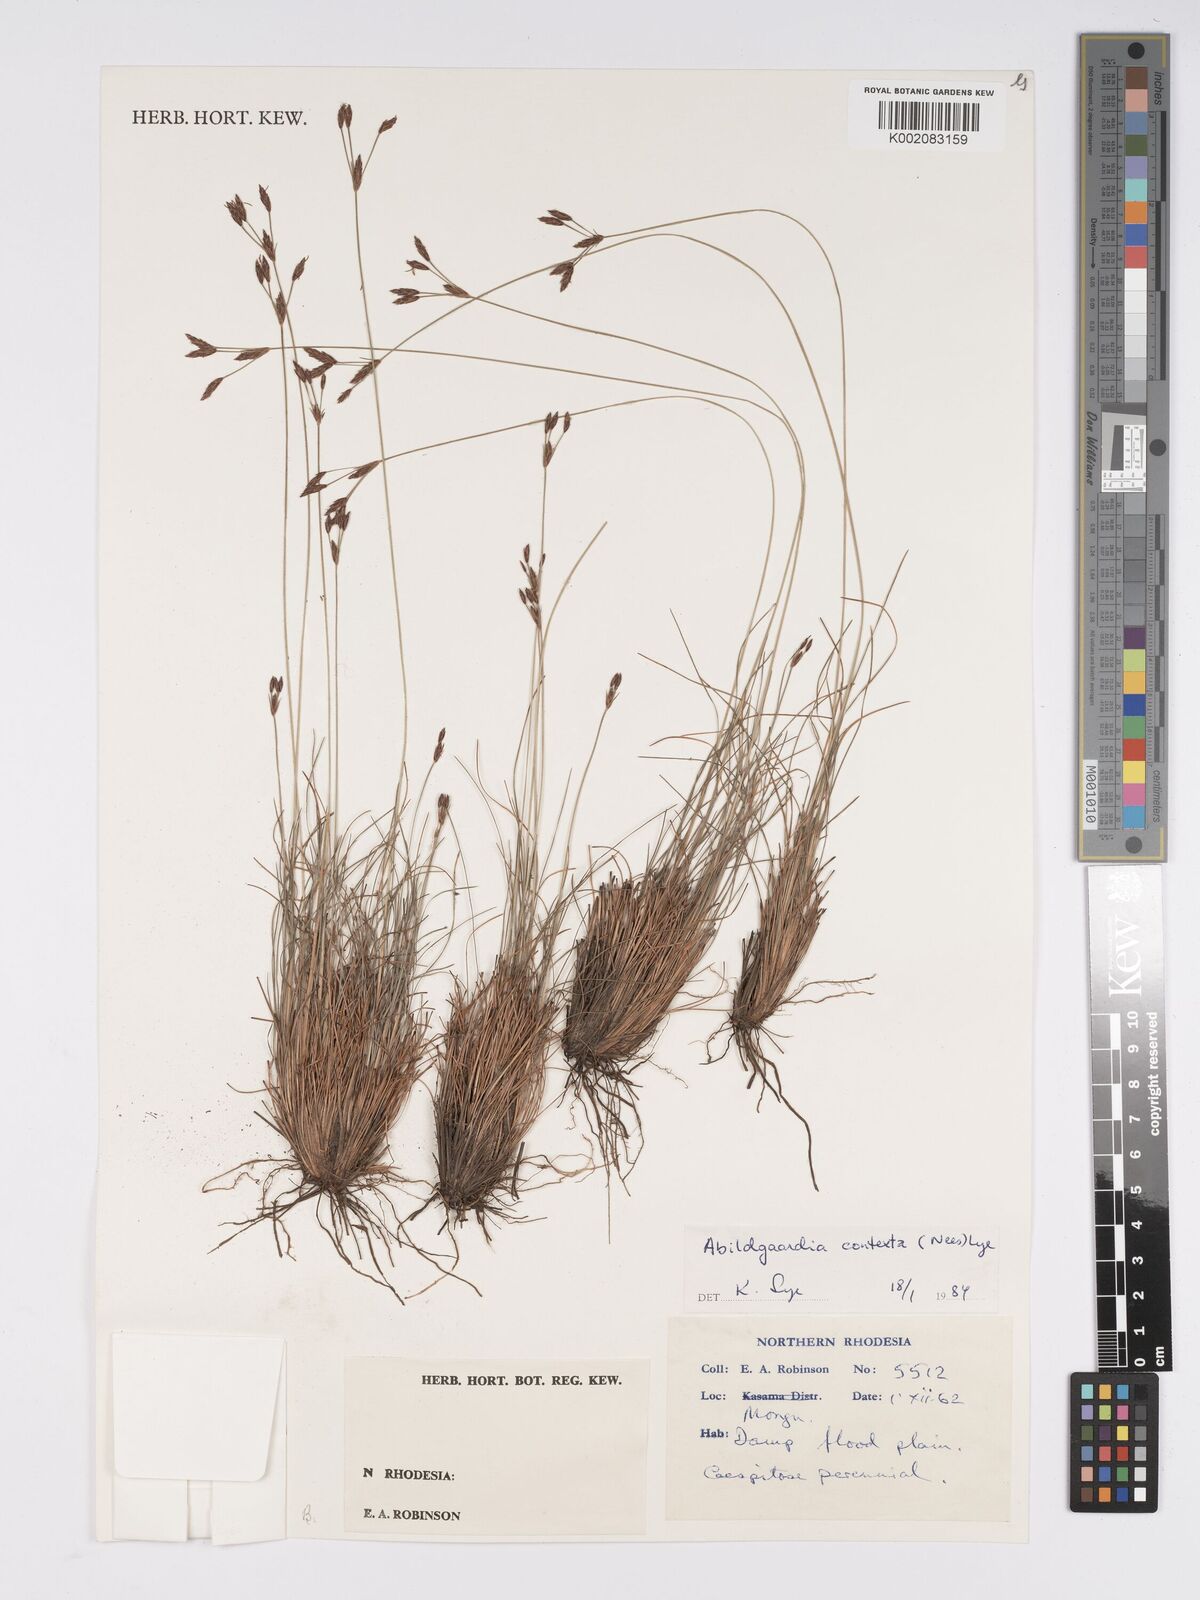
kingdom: Plantae
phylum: Tracheophyta
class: Liliopsida
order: Poales
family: Cyperaceae
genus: Bulbostylis
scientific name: Bulbostylis contexta
